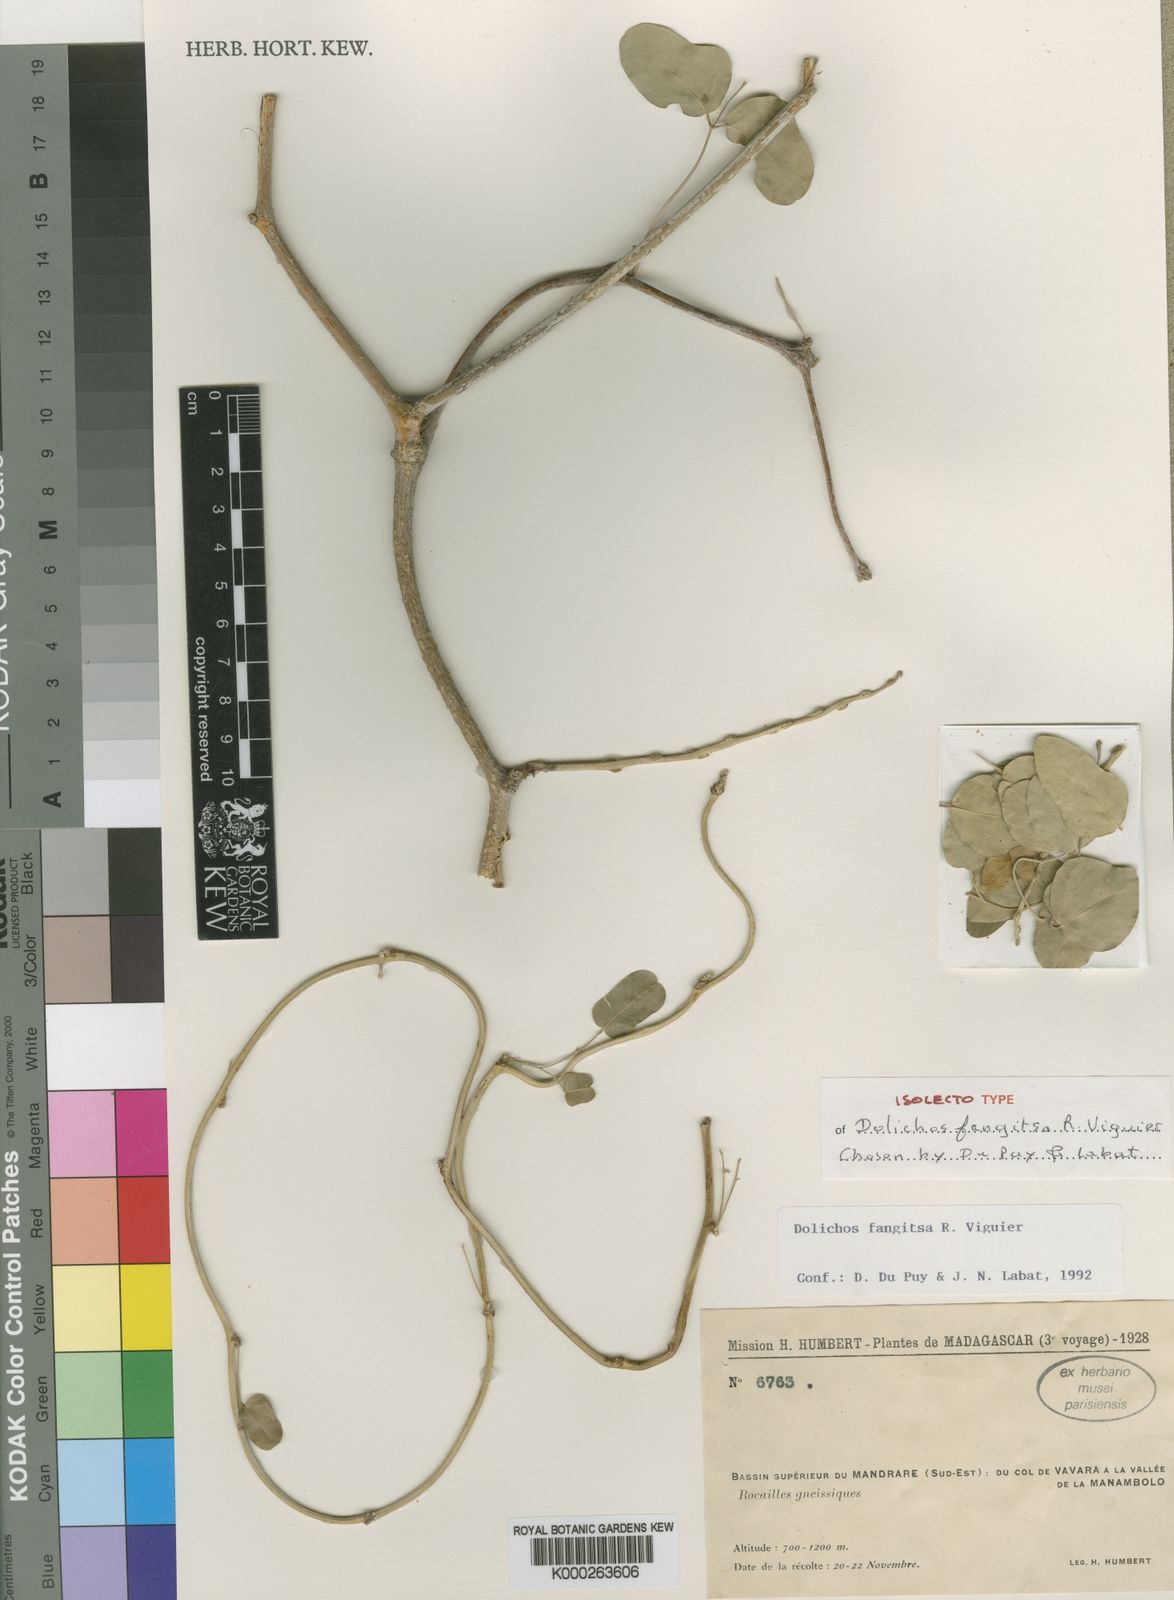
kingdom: Plantae
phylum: Tracheophyta
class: Magnoliopsida
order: Fabales
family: Fabaceae
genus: Dolichos
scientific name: Dolichos fangitsa
